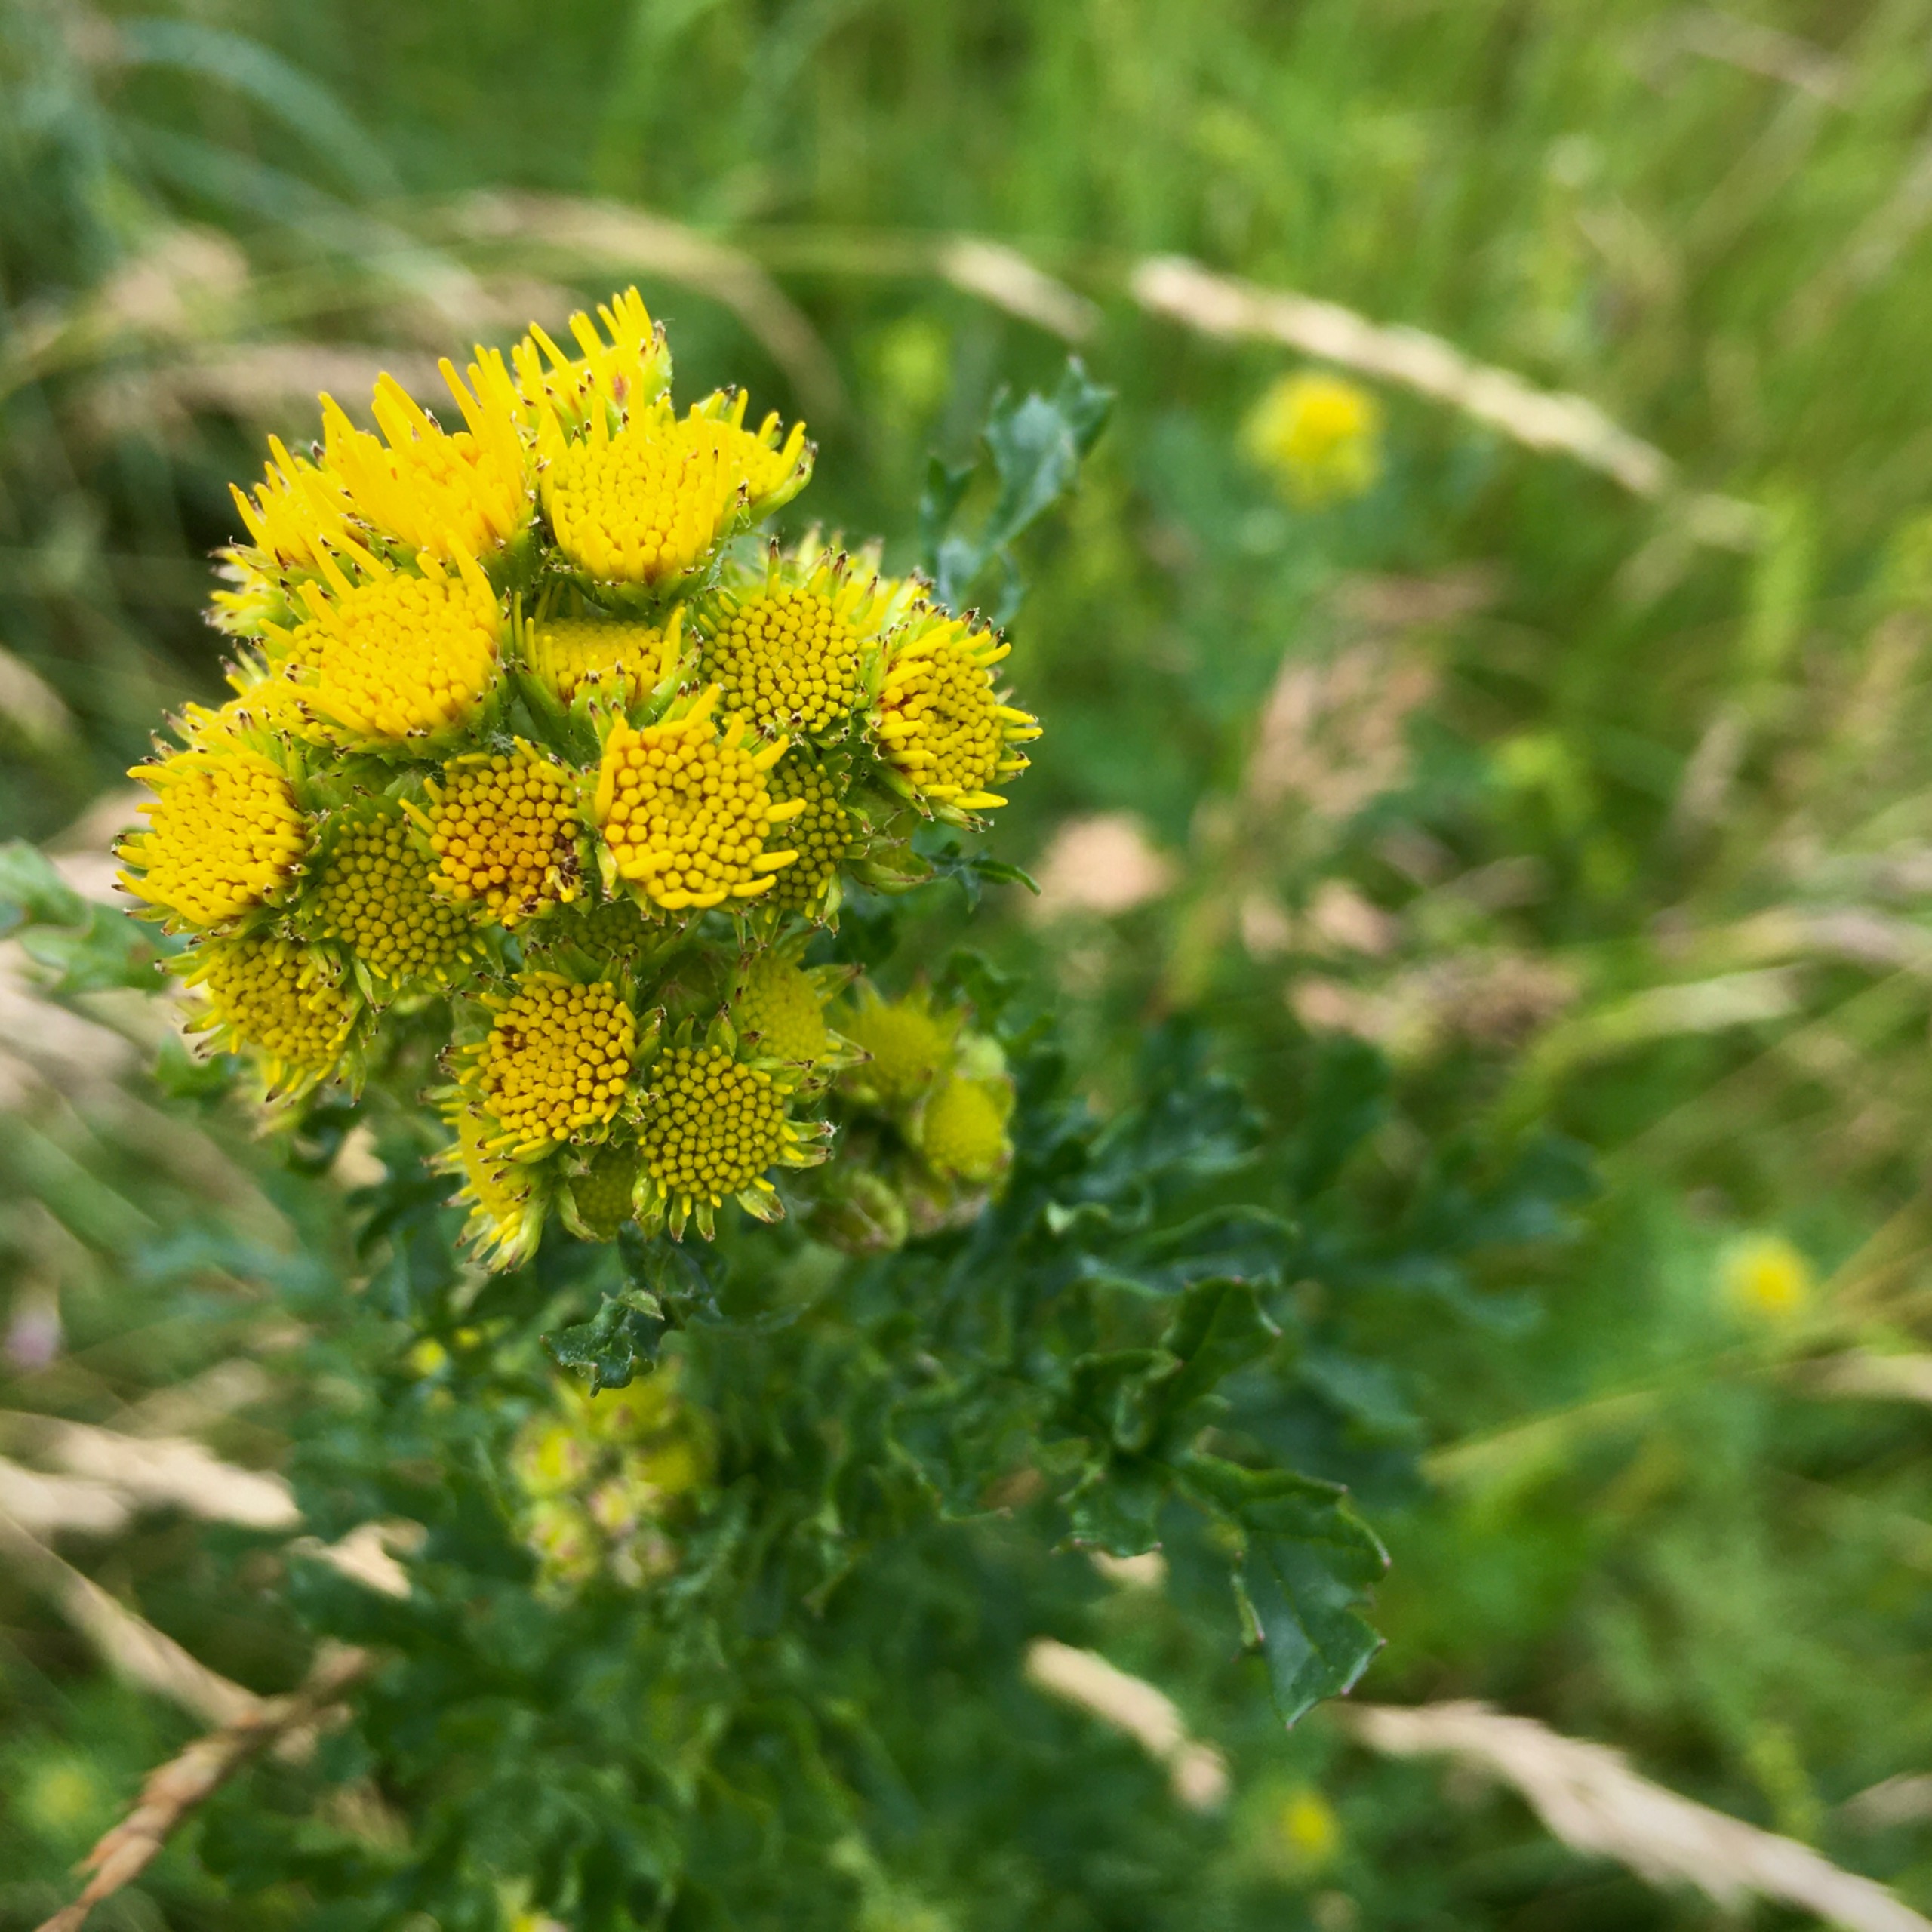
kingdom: Plantae
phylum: Tracheophyta
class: Magnoliopsida
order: Asterales
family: Asteraceae
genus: Jacobaea
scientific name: Jacobaea vulgaris
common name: Eng-brandbæger
